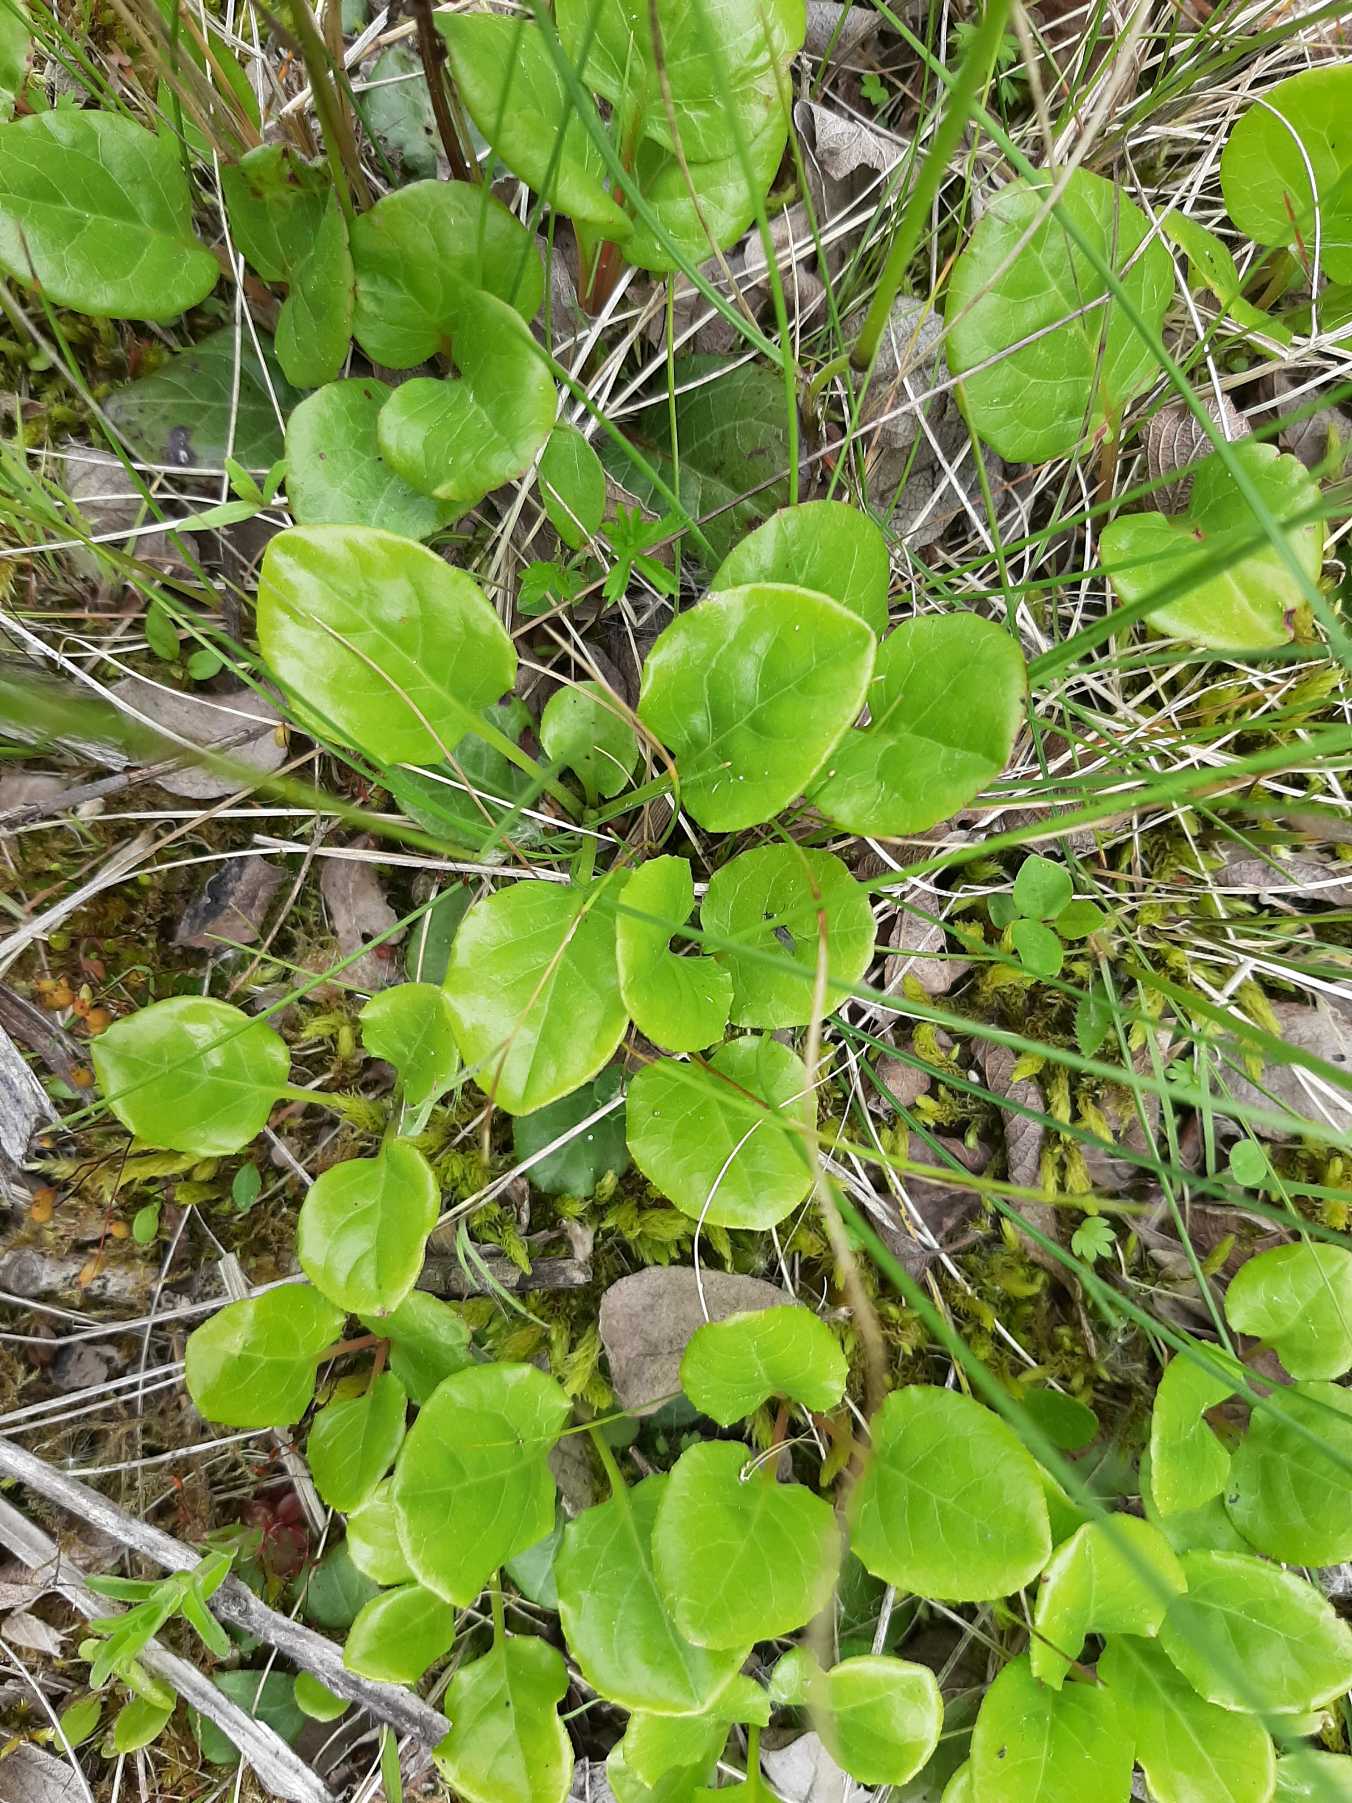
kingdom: Plantae
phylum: Tracheophyta
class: Magnoliopsida
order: Ericales
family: Ericaceae
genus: Pyrola
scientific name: Pyrola minor
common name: Liden vintergrøn
